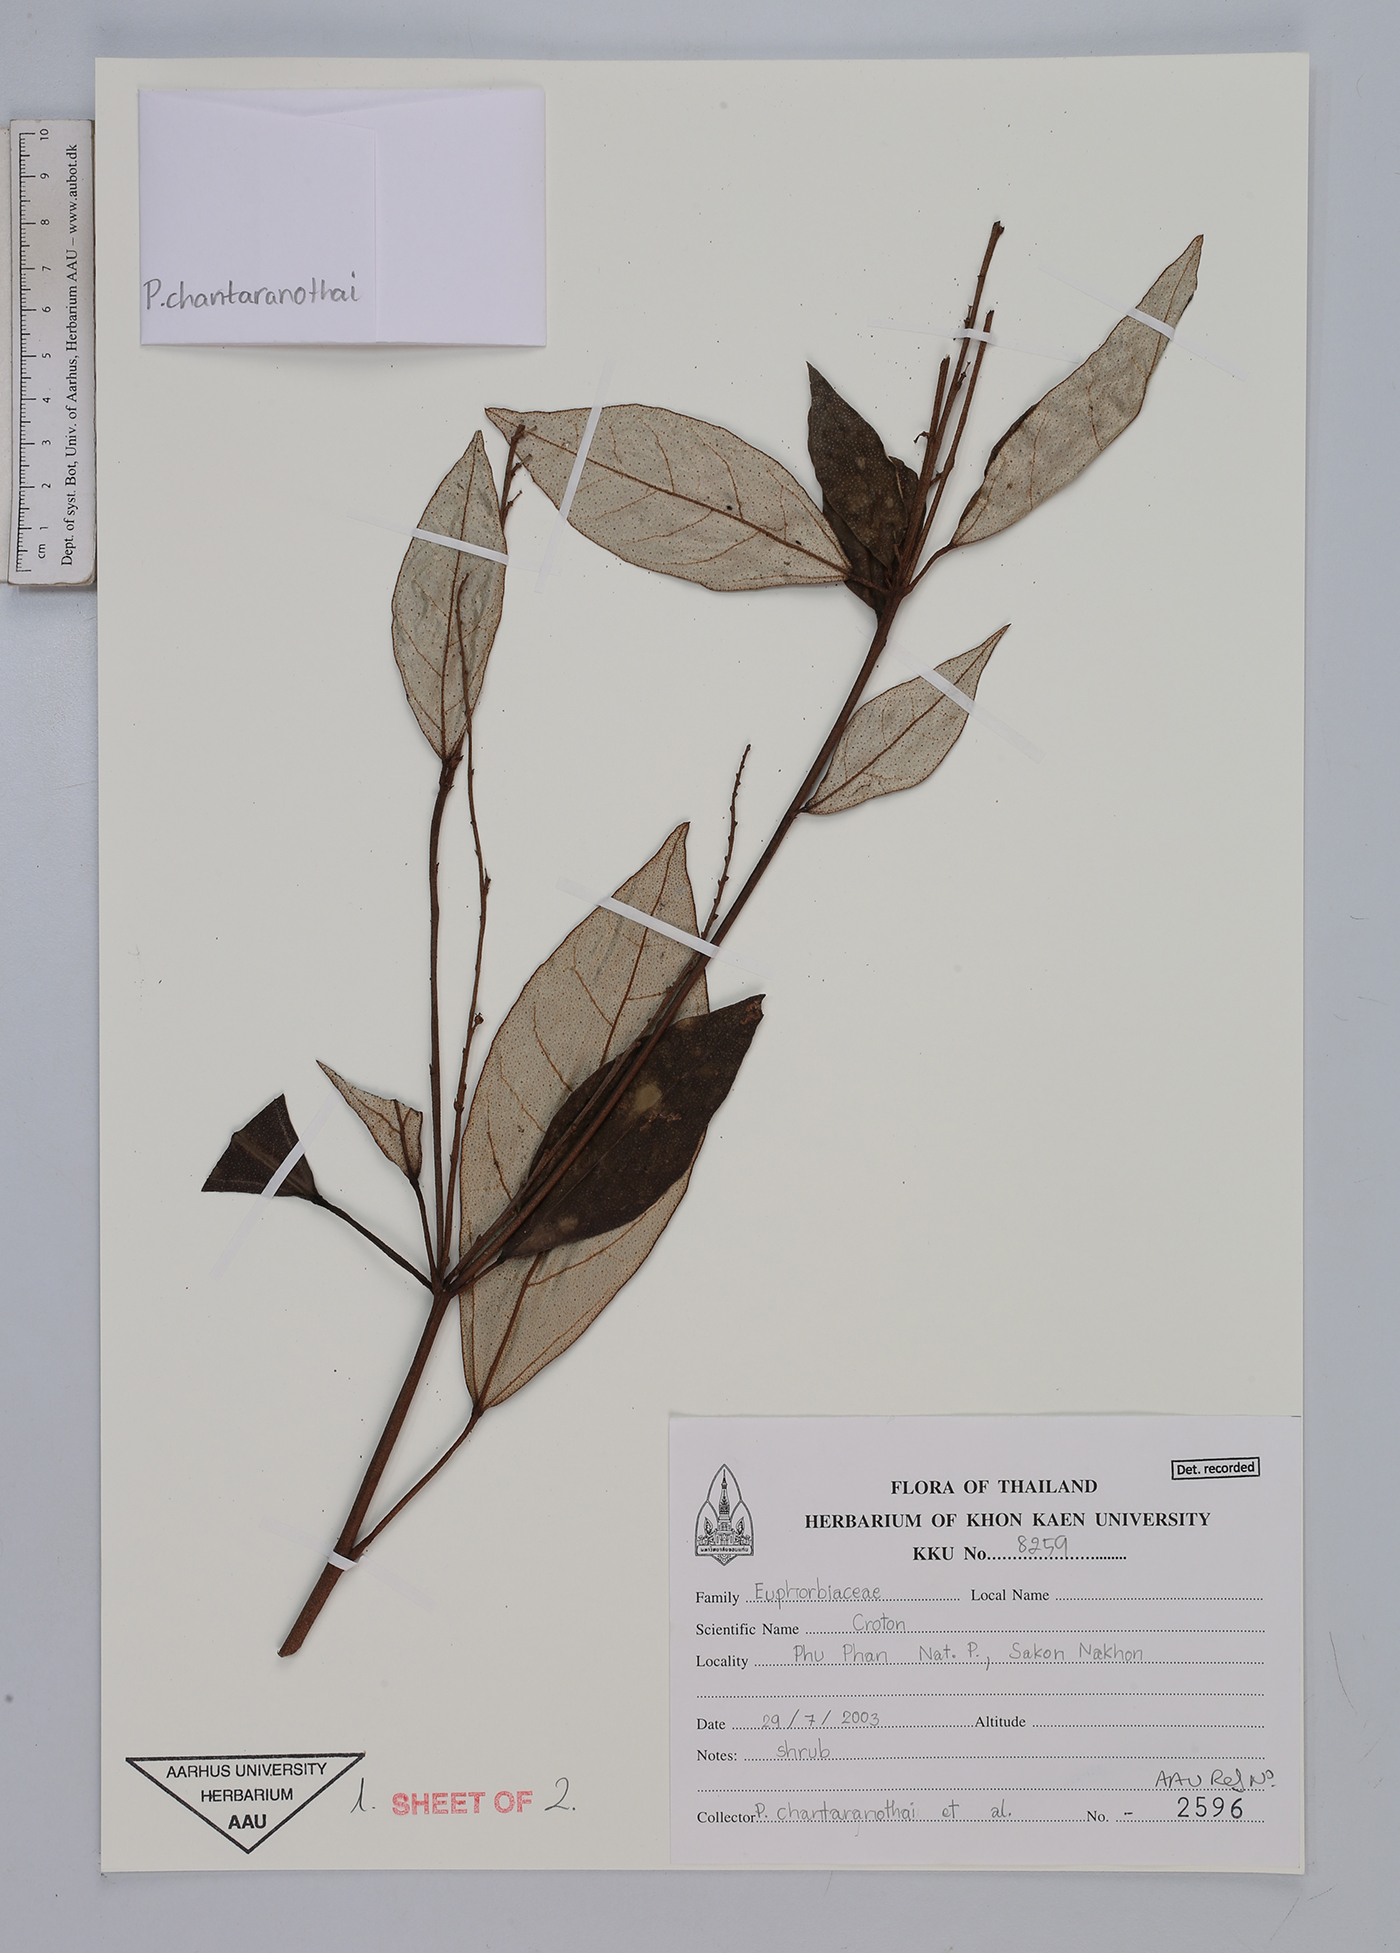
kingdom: Plantae
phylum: Tracheophyta
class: Magnoliopsida
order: Malpighiales
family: Euphorbiaceae
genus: Croton
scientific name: Croton
